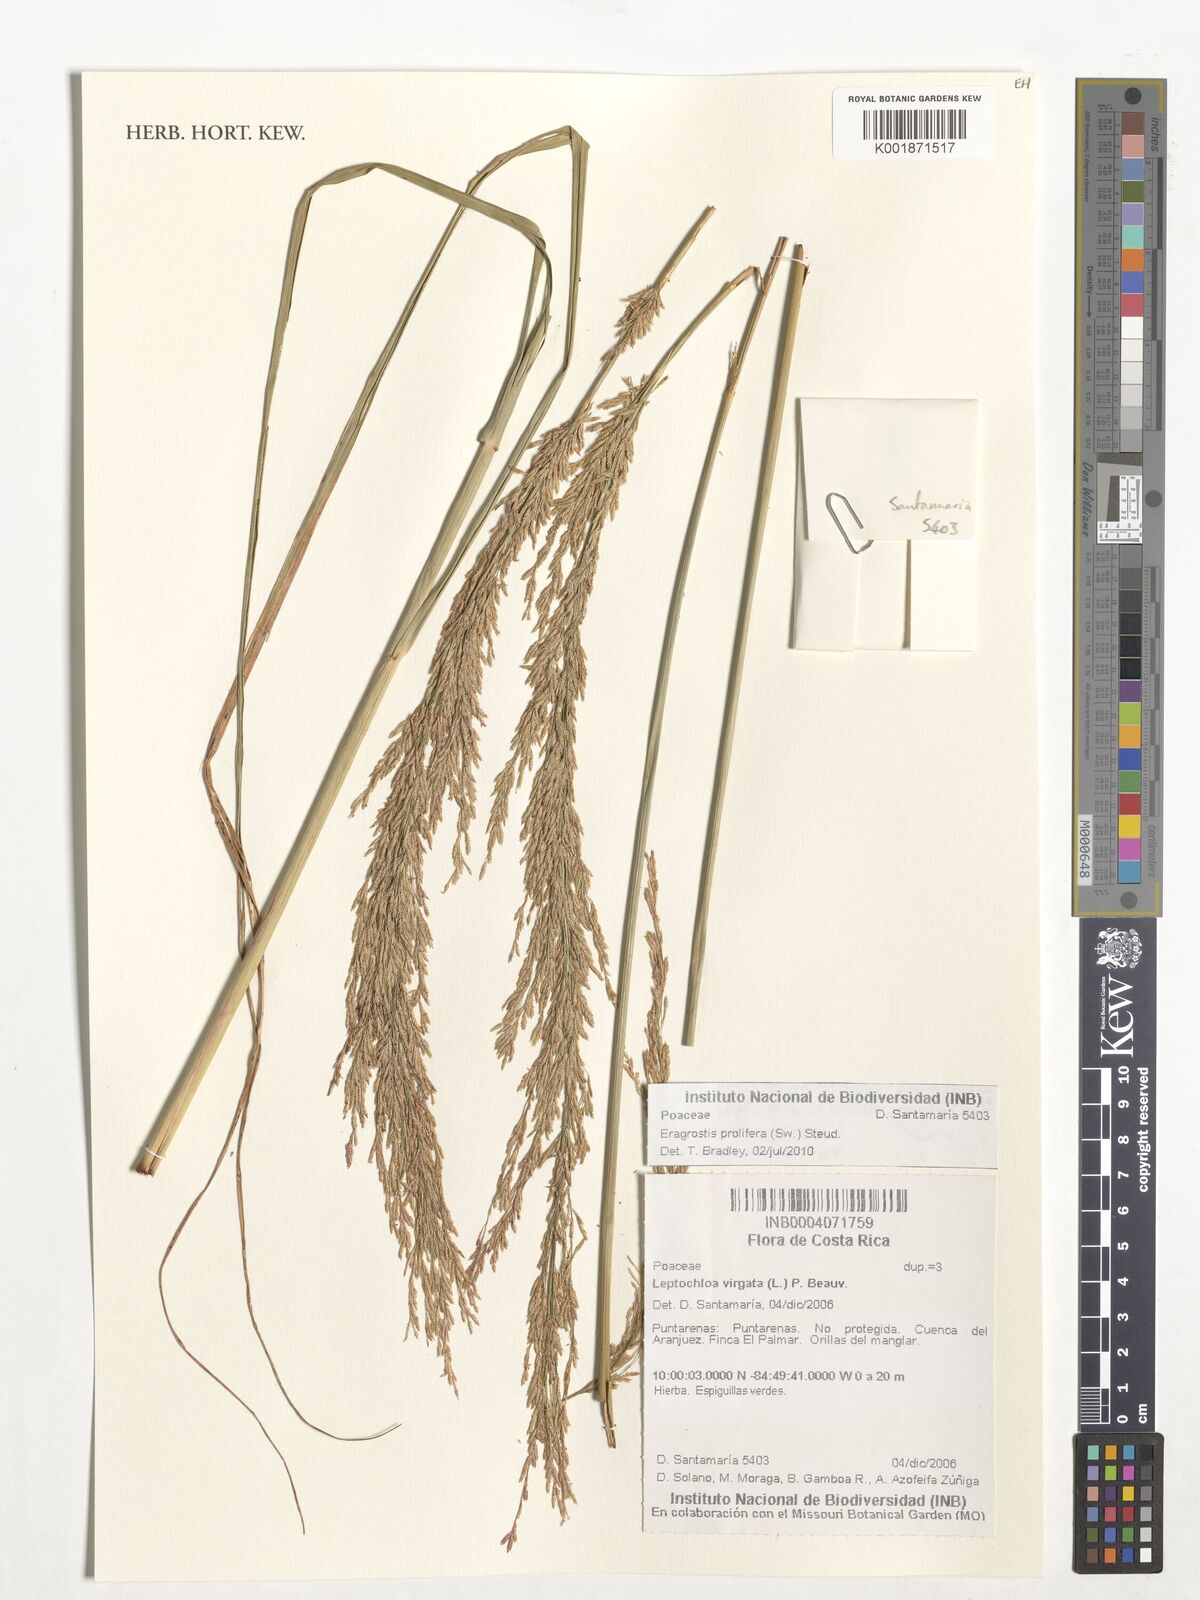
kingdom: Plantae
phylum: Tracheophyta
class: Liliopsida
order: Poales
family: Poaceae
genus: Eragrostis
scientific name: Eragrostis prolifera
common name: Dominican lovegrass
